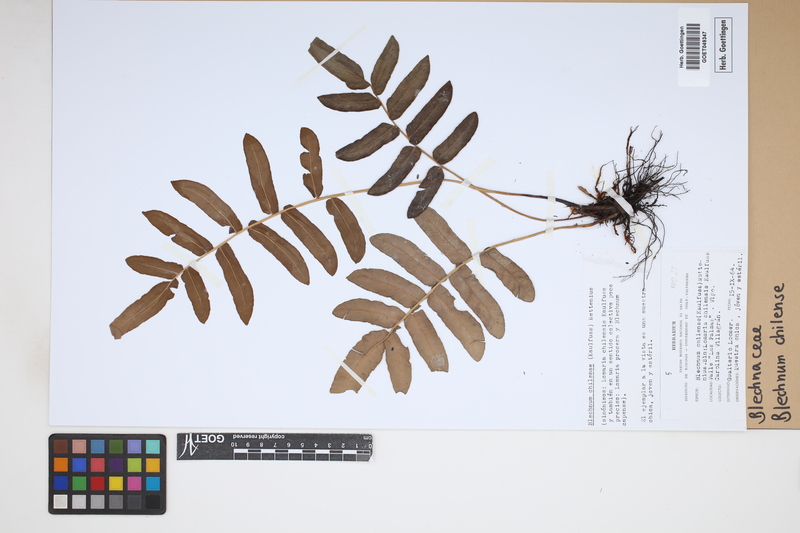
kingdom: Plantae
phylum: Tracheophyta
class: Polypodiopsida
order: Polypodiales
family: Blechnaceae
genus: Parablechnum
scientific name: Parablechnum chilense
